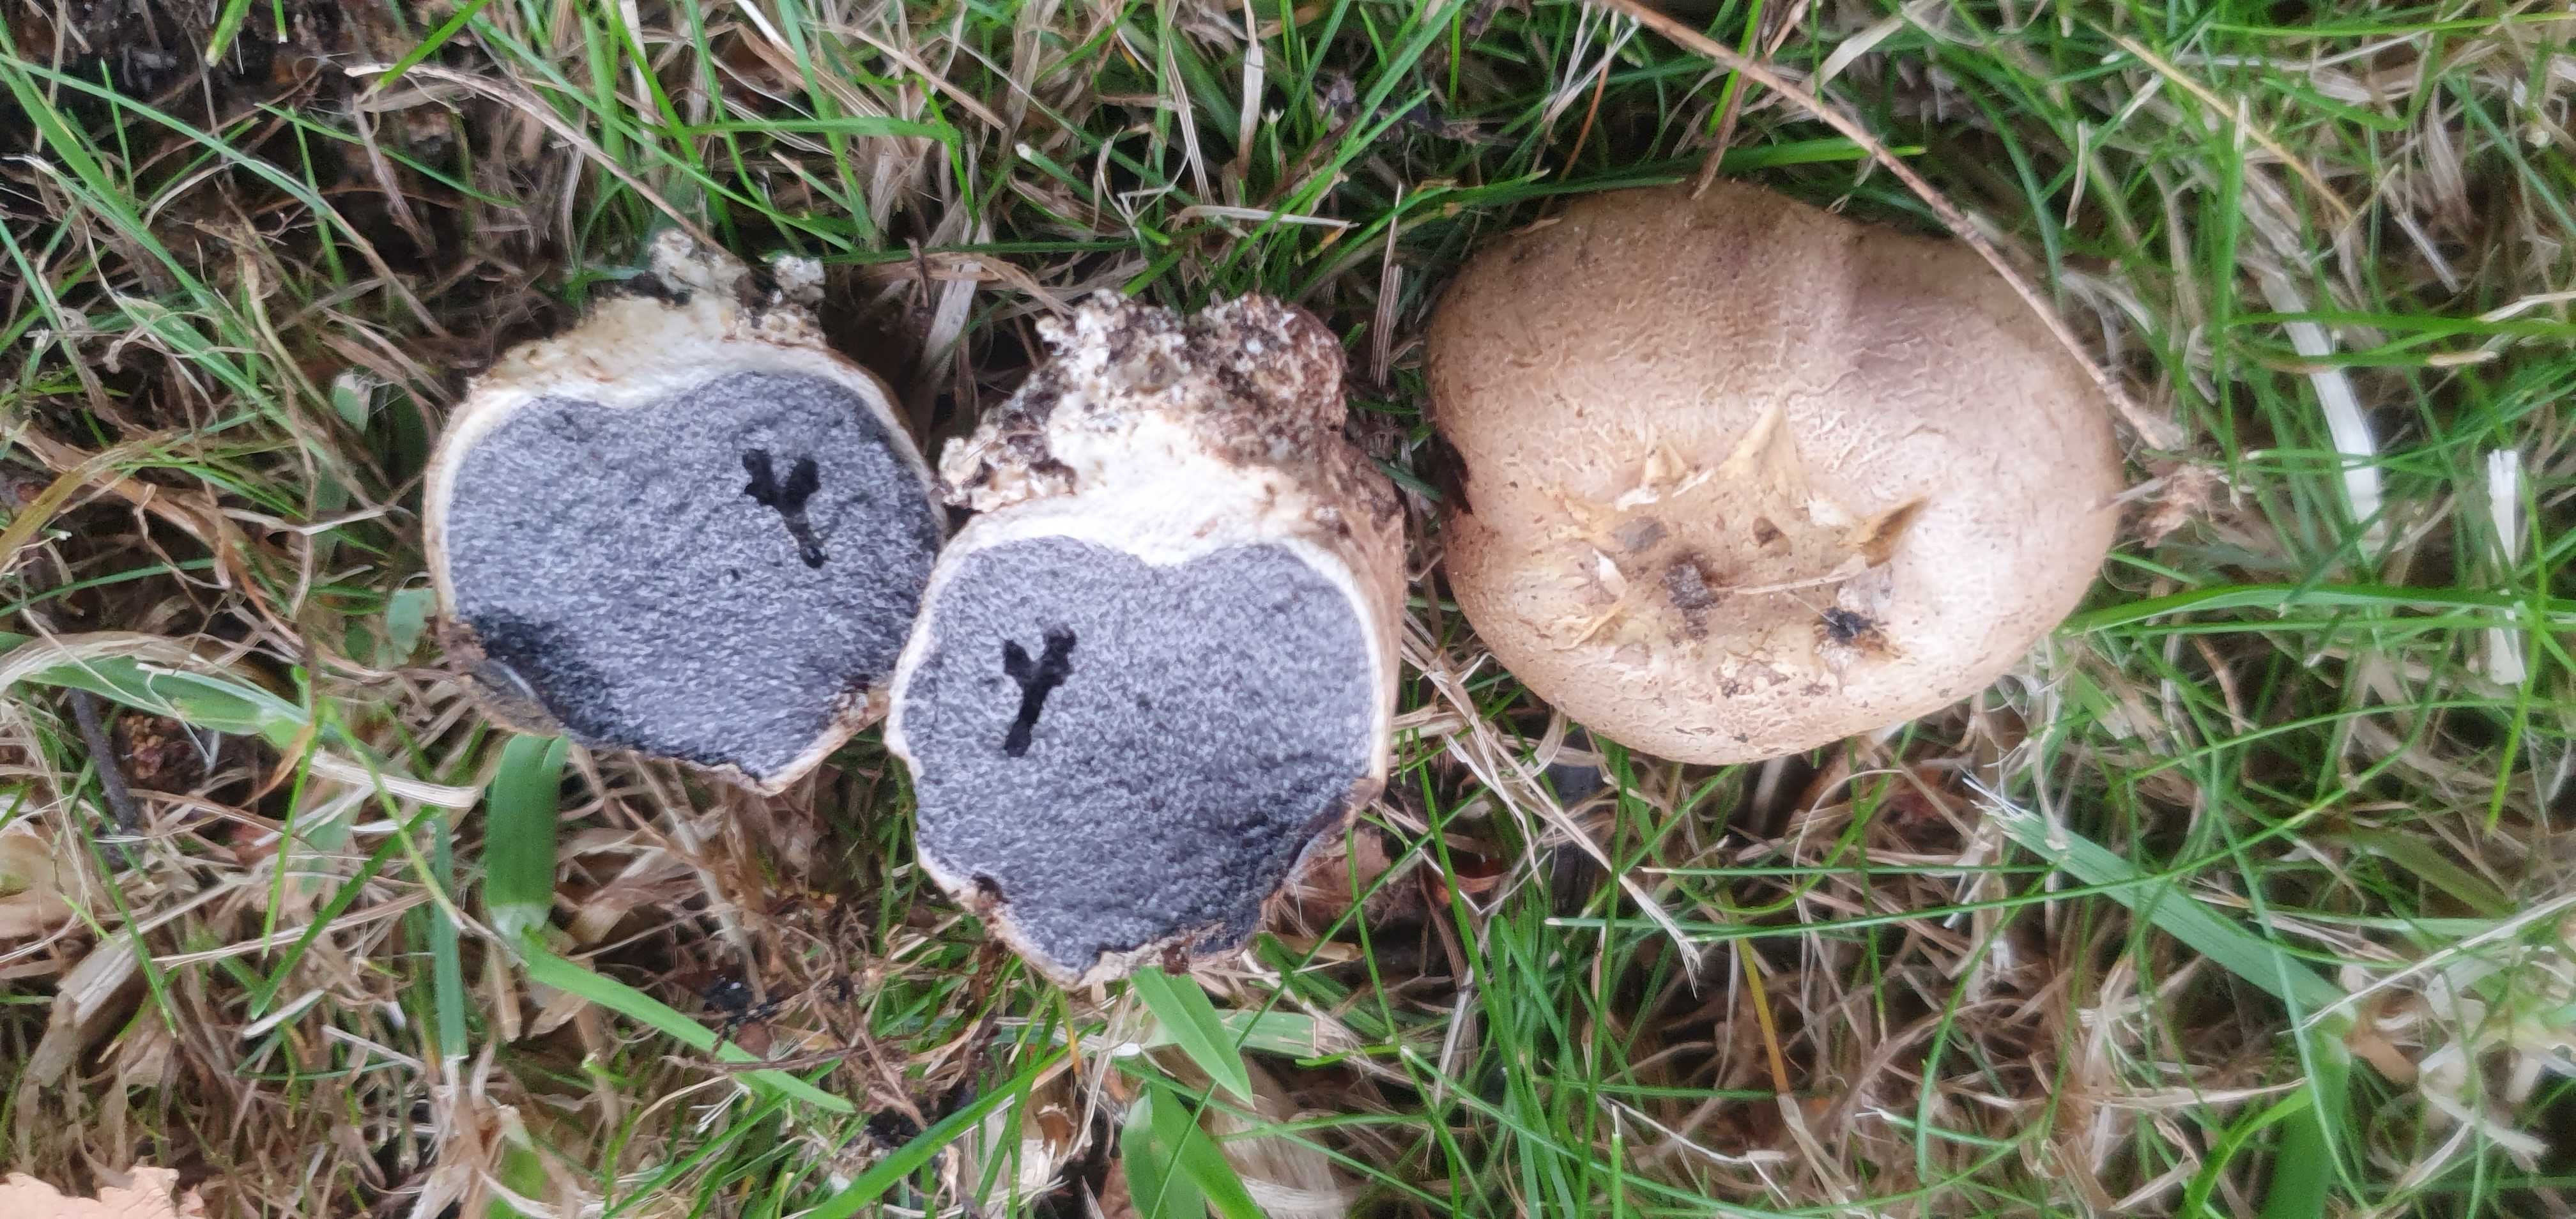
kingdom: Fungi
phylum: Basidiomycota
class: Agaricomycetes
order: Boletales
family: Sclerodermataceae
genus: Scleroderma
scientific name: Scleroderma bovista
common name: bovist-bruskbold
